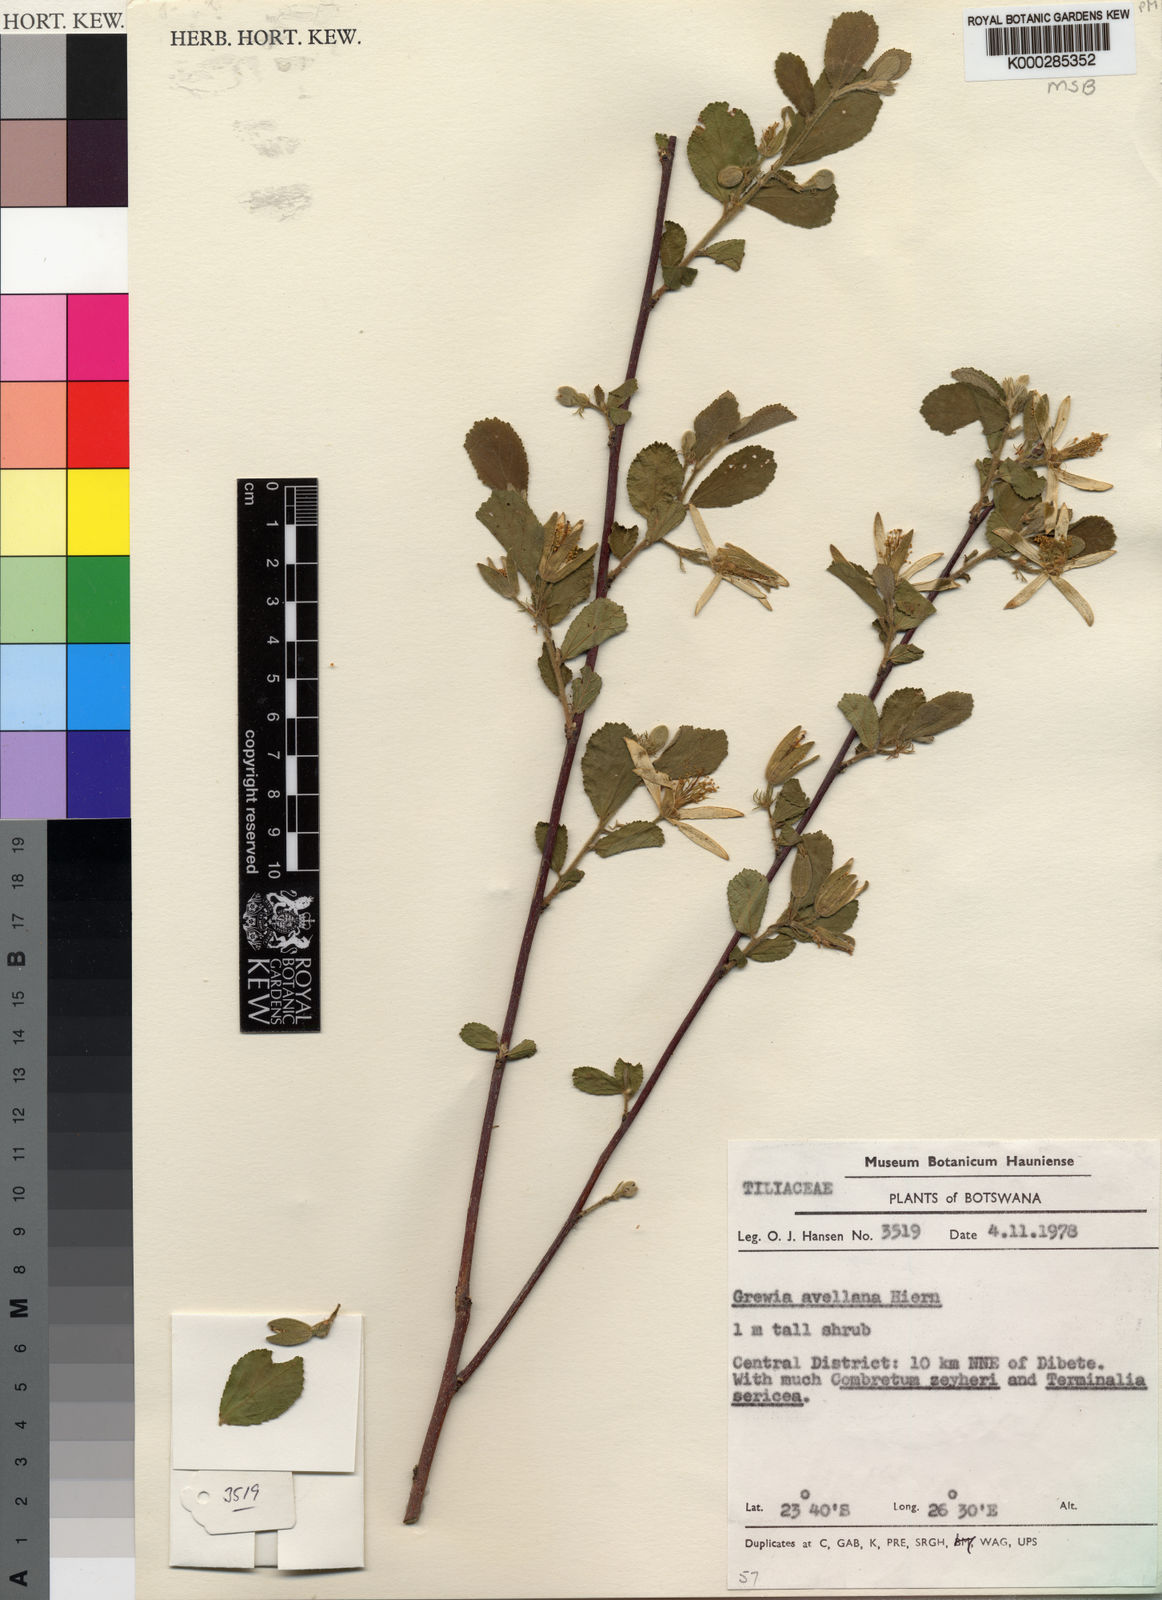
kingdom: Plantae
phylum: Tracheophyta
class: Magnoliopsida
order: Malvales
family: Malvaceae
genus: Grewia
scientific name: Grewia avellana
